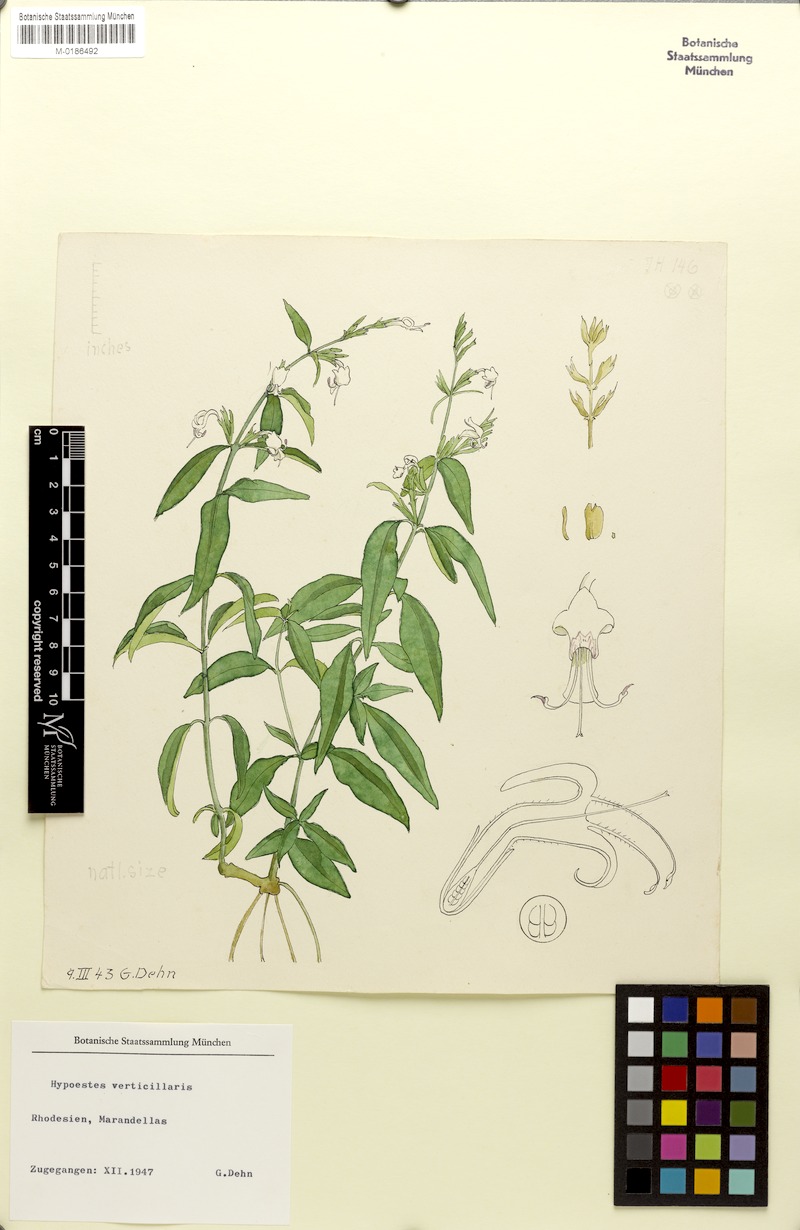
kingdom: Plantae
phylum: Tracheophyta
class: Magnoliopsida
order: Lamiales
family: Acanthaceae
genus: Hypoestes
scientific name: Hypoestes verticillaris
